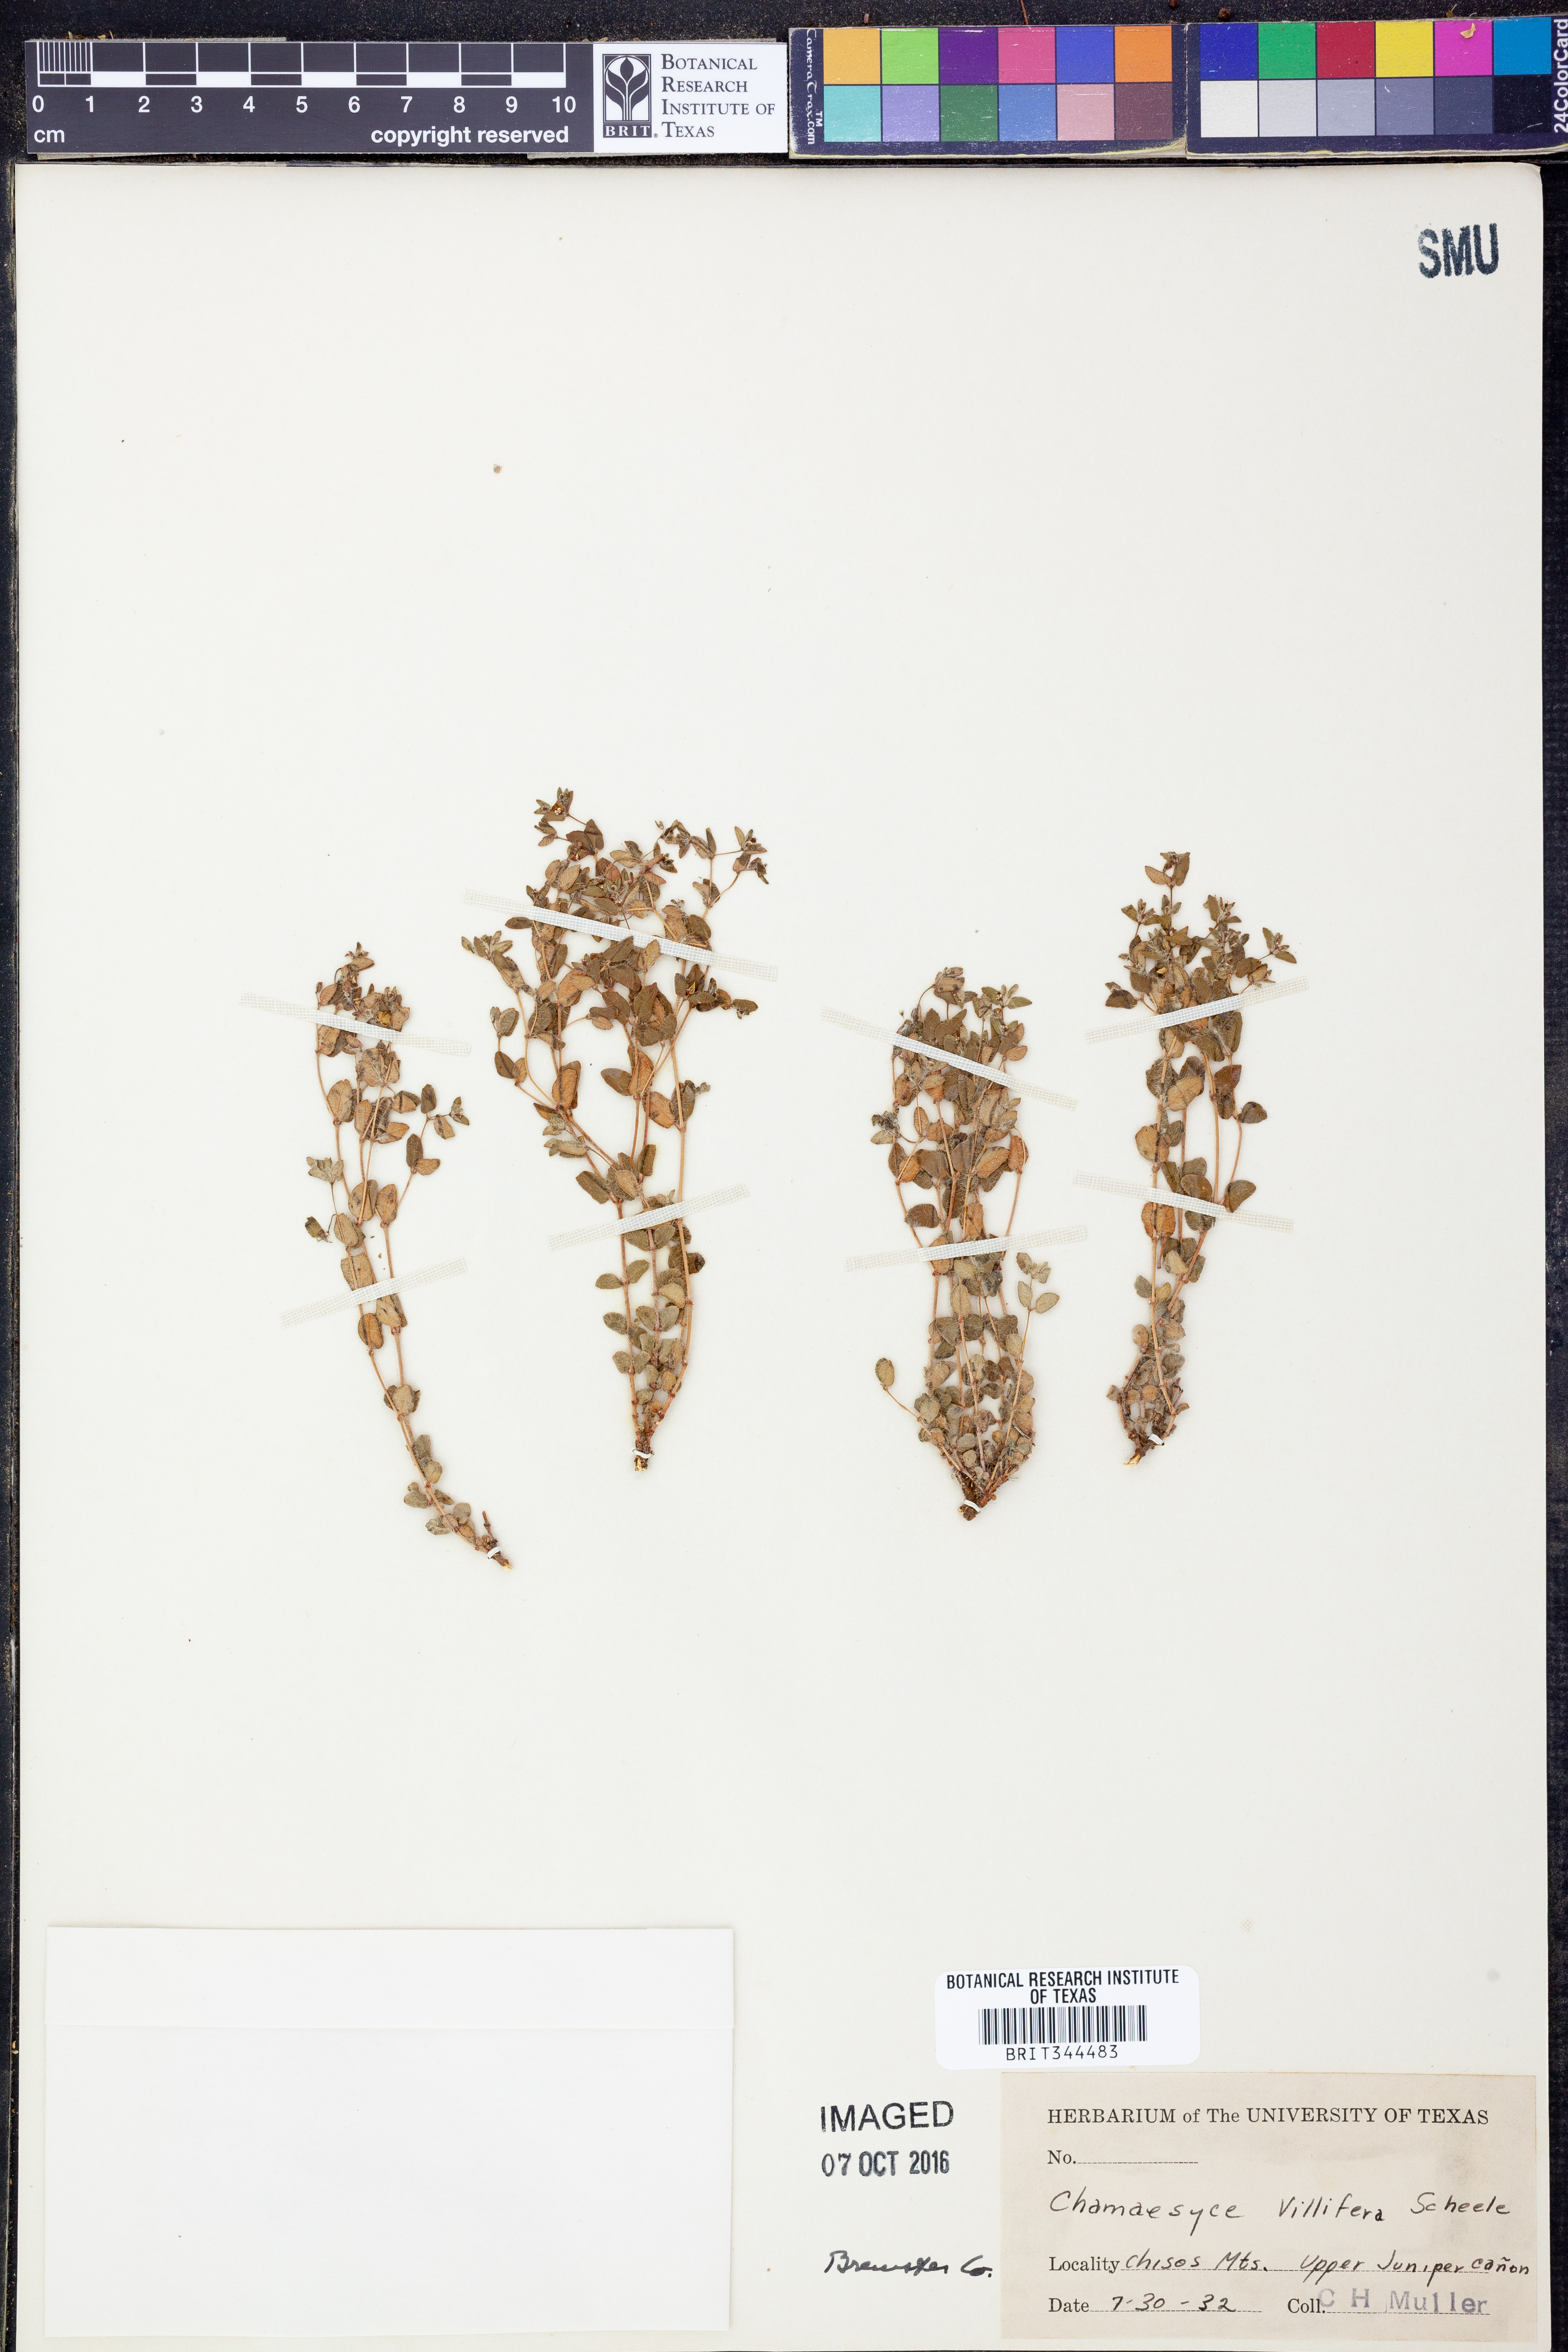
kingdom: Plantae
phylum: Tracheophyta
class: Magnoliopsida
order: Malpighiales
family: Euphorbiaceae
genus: Euphorbia
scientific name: Euphorbia villifera
